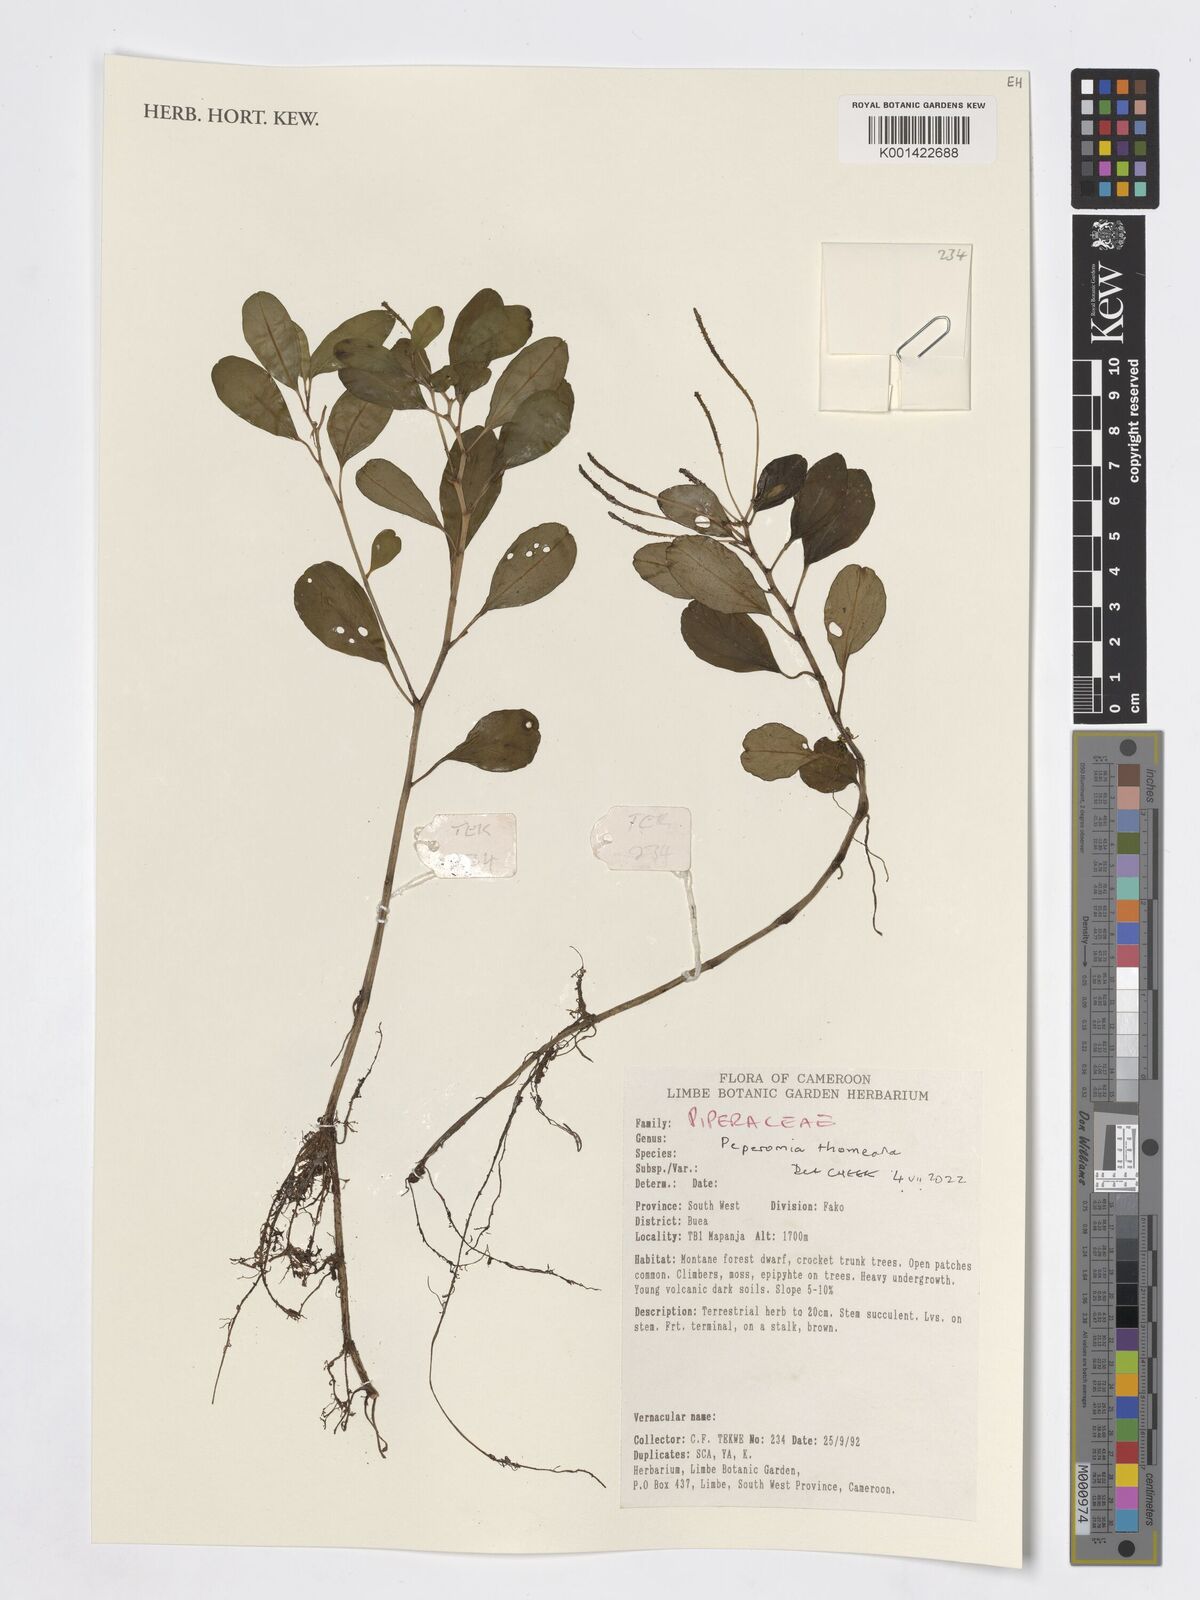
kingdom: Plantae
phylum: Tracheophyta
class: Magnoliopsida
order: Piperales
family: Piperaceae
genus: Peperomia
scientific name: Peperomia thomeana
